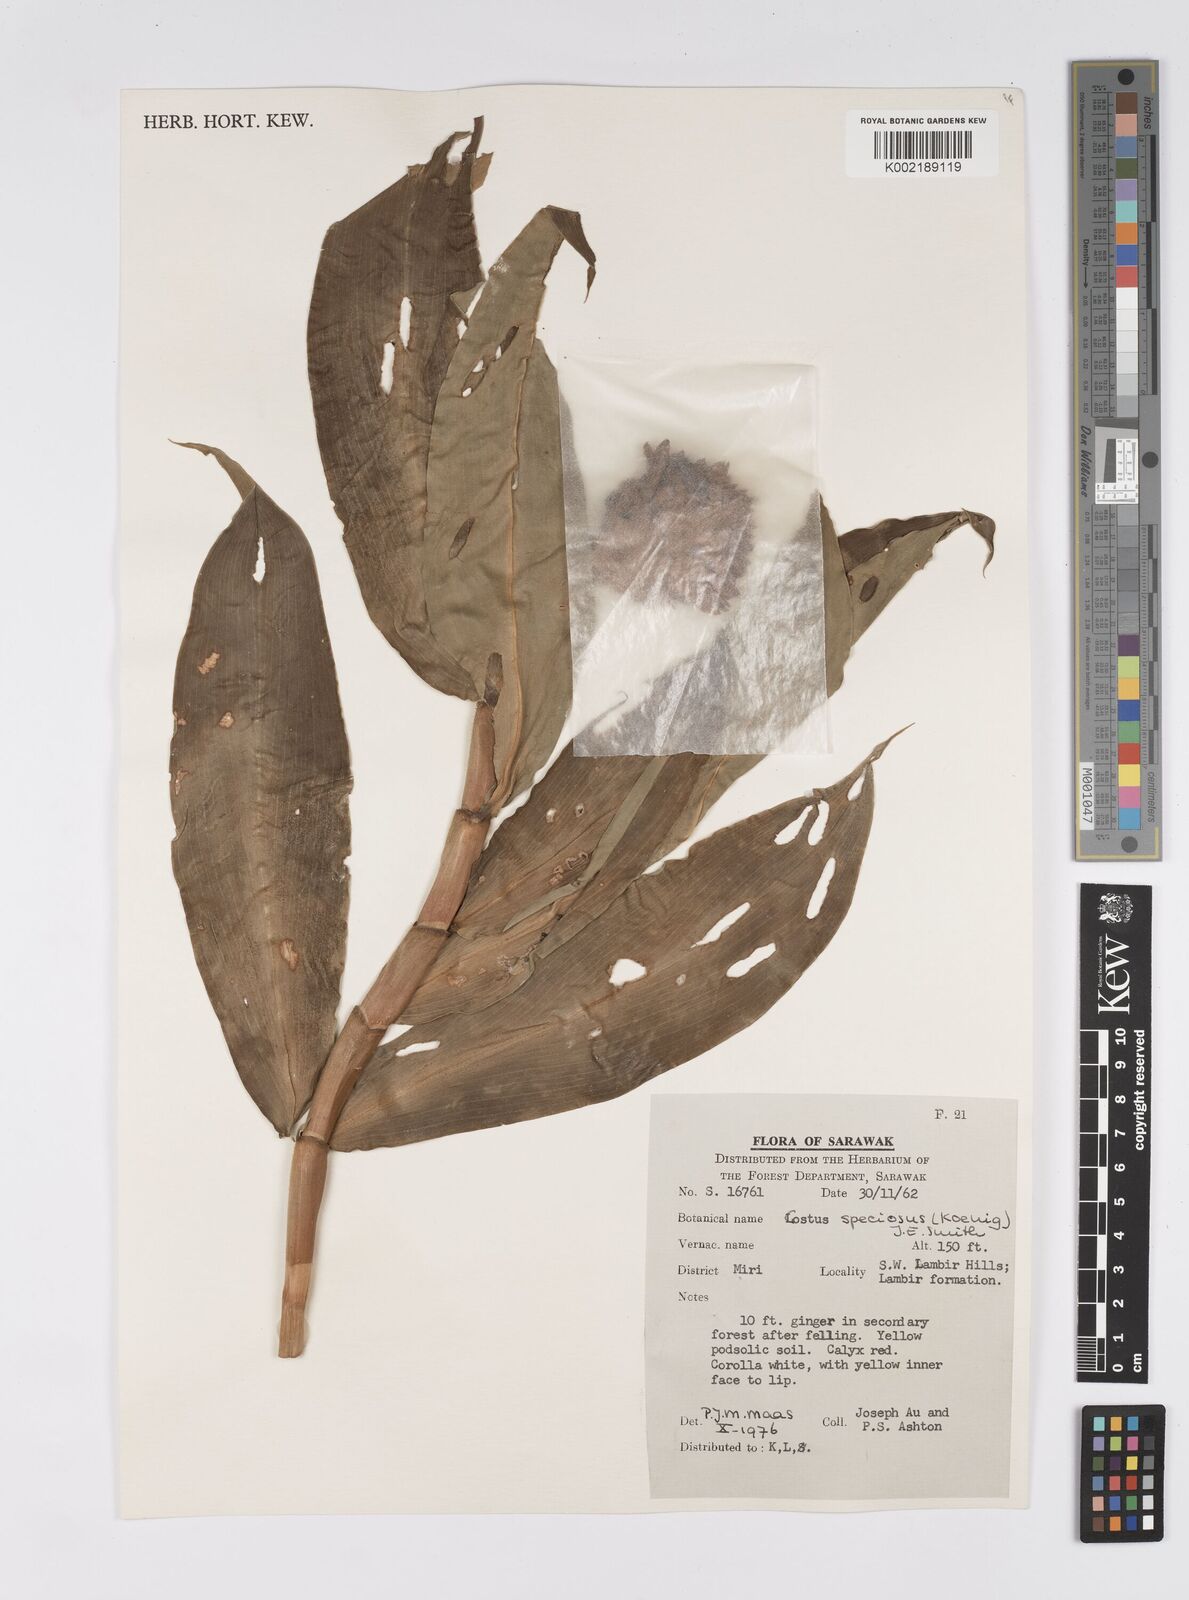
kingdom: Plantae
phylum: Tracheophyta
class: Liliopsida
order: Zingiberales
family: Costaceae
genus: Hellenia
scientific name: Hellenia speciosa
